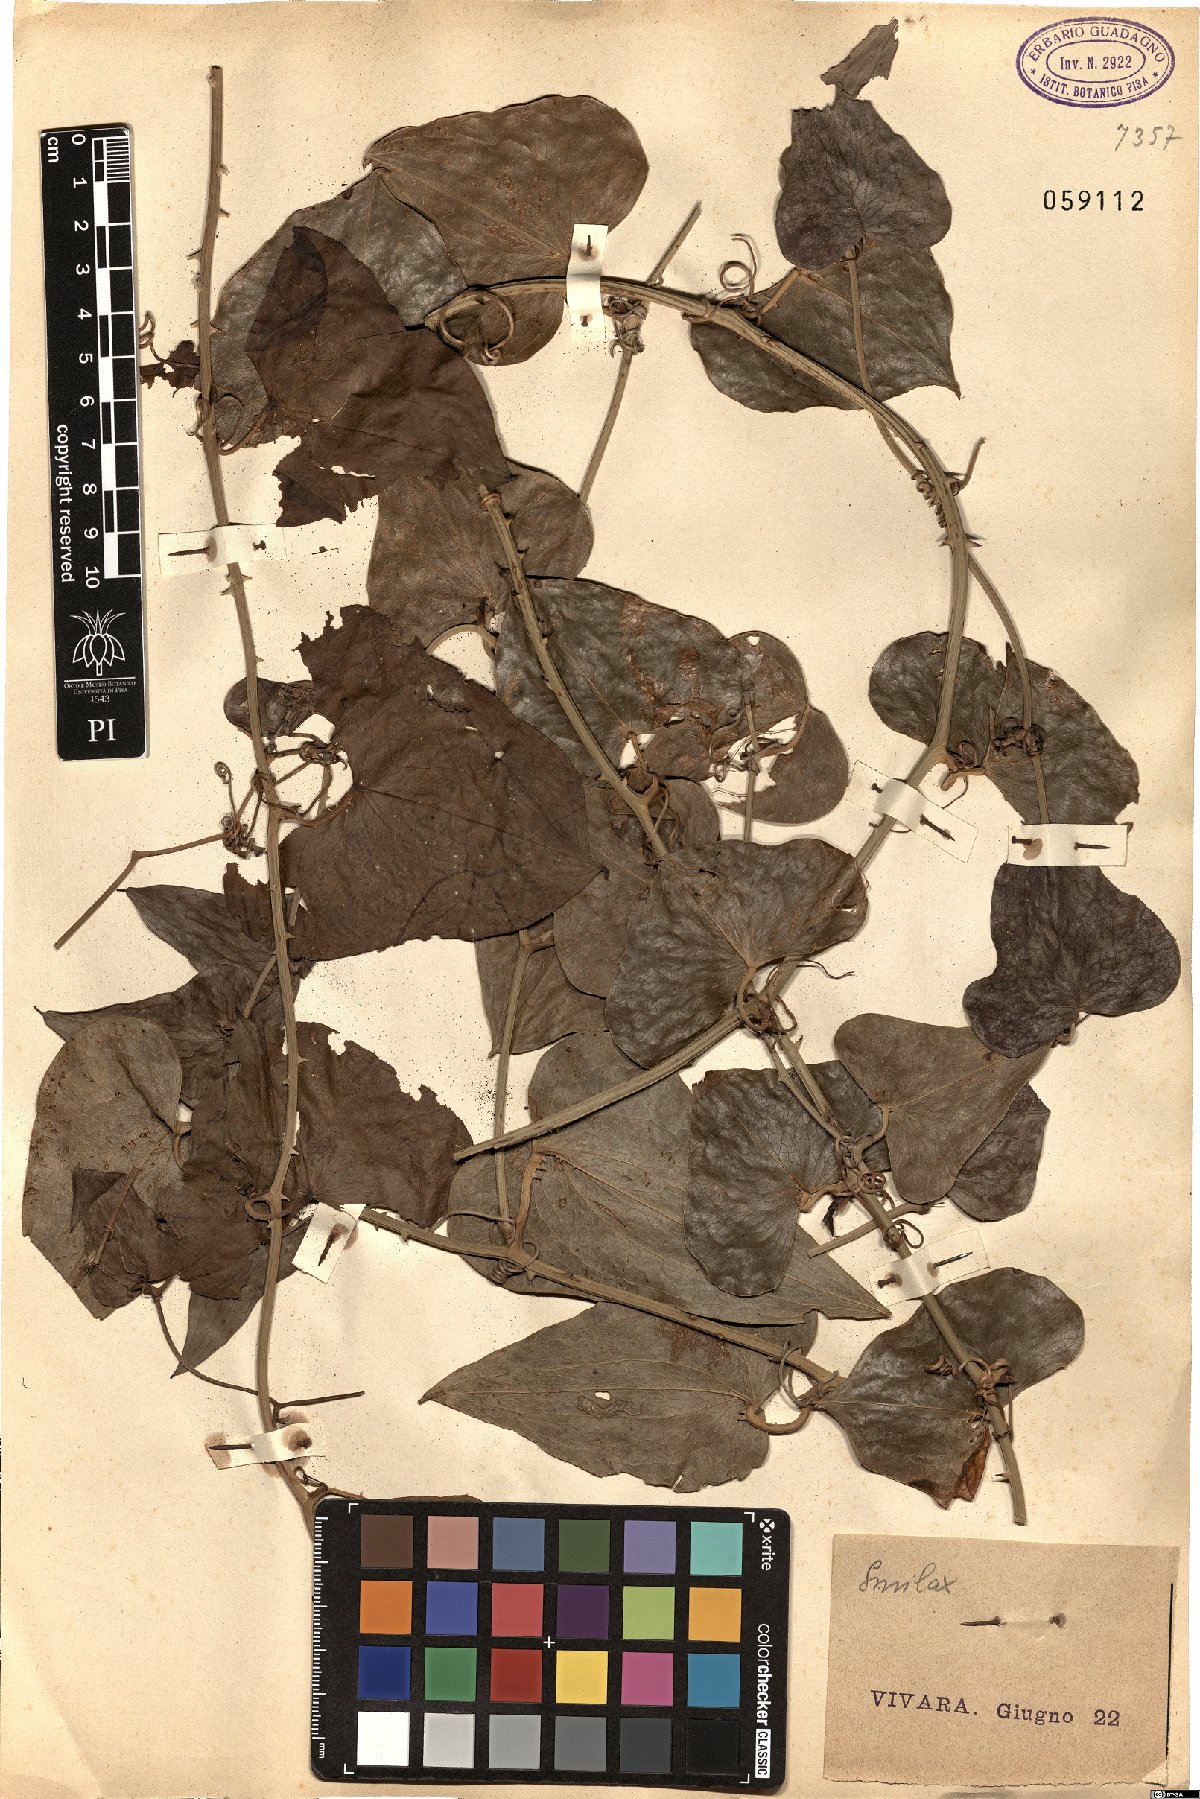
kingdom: Plantae
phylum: Tracheophyta
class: Liliopsida
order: Liliales
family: Smilacaceae
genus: Smilax
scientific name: Smilax
